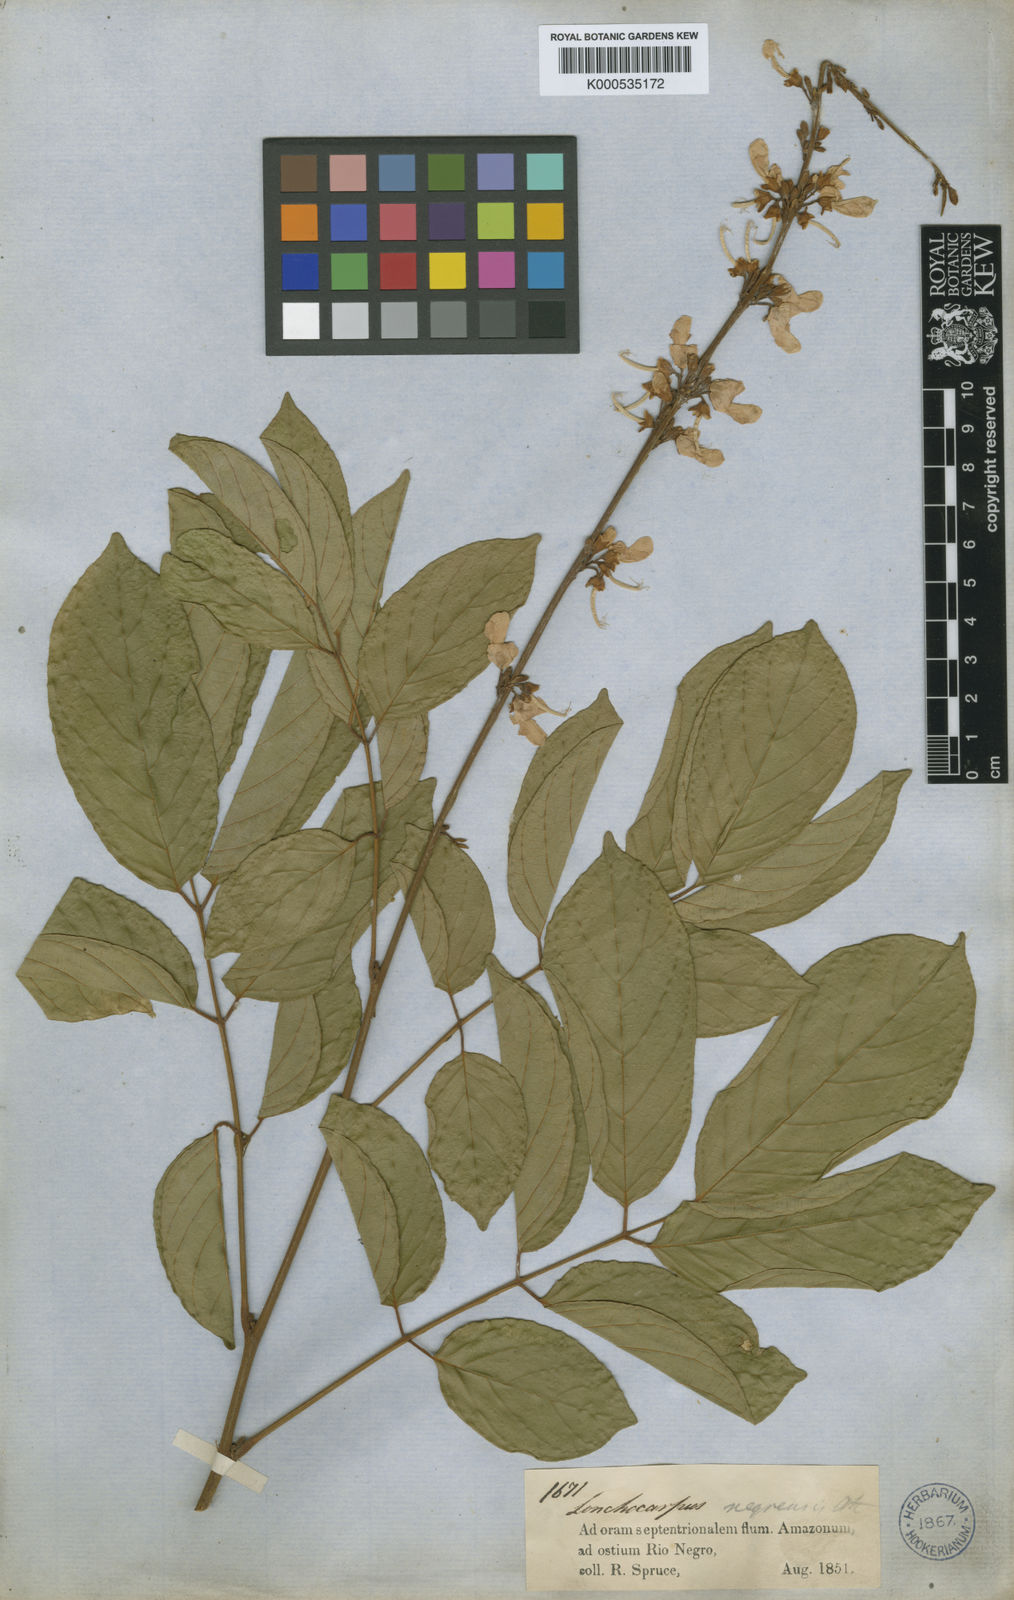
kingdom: Plantae
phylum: Tracheophyta
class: Magnoliopsida
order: Fabales
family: Fabaceae
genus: Deguelia
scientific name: Deguelia negrensis
